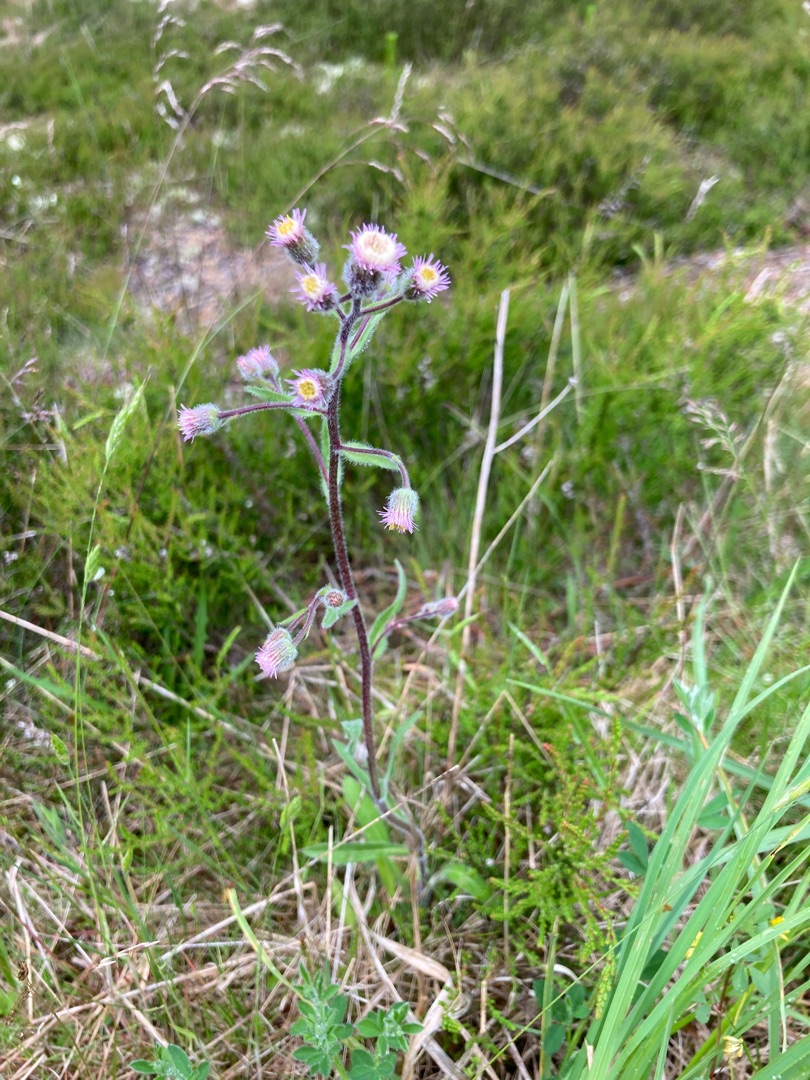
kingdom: Plantae
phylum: Tracheophyta
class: Magnoliopsida
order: Asterales
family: Asteraceae
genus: Erigeron
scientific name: Erigeron acris
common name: Bitter bakkestjerne
